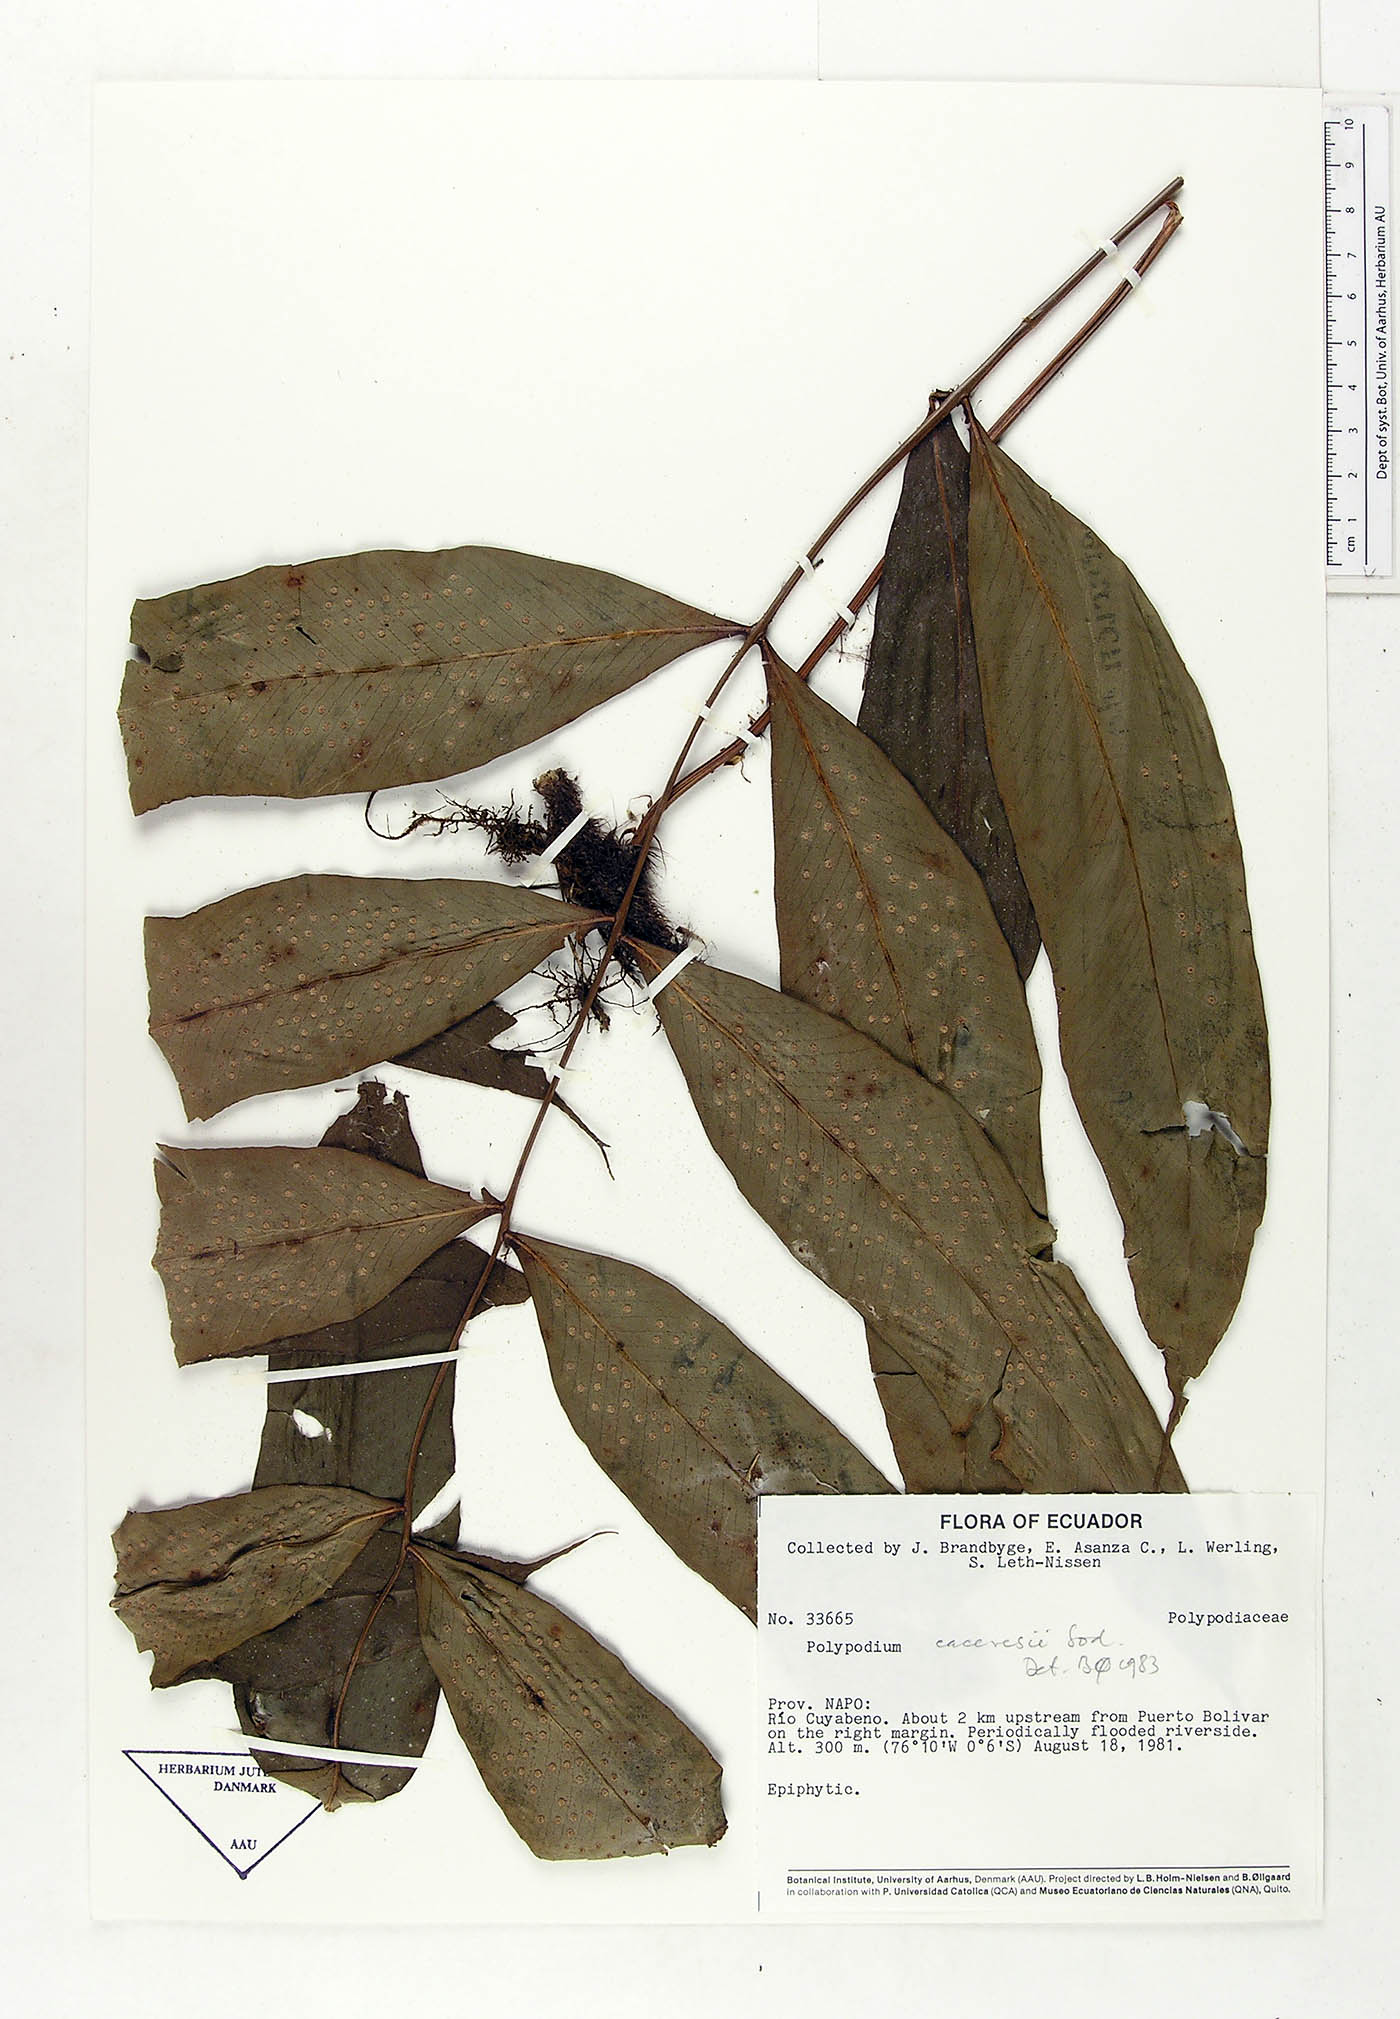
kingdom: Plantae
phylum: Tracheophyta
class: Polypodiopsida
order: Polypodiales
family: Polypodiaceae
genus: Serpocaulon
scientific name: Serpocaulon articulatum
